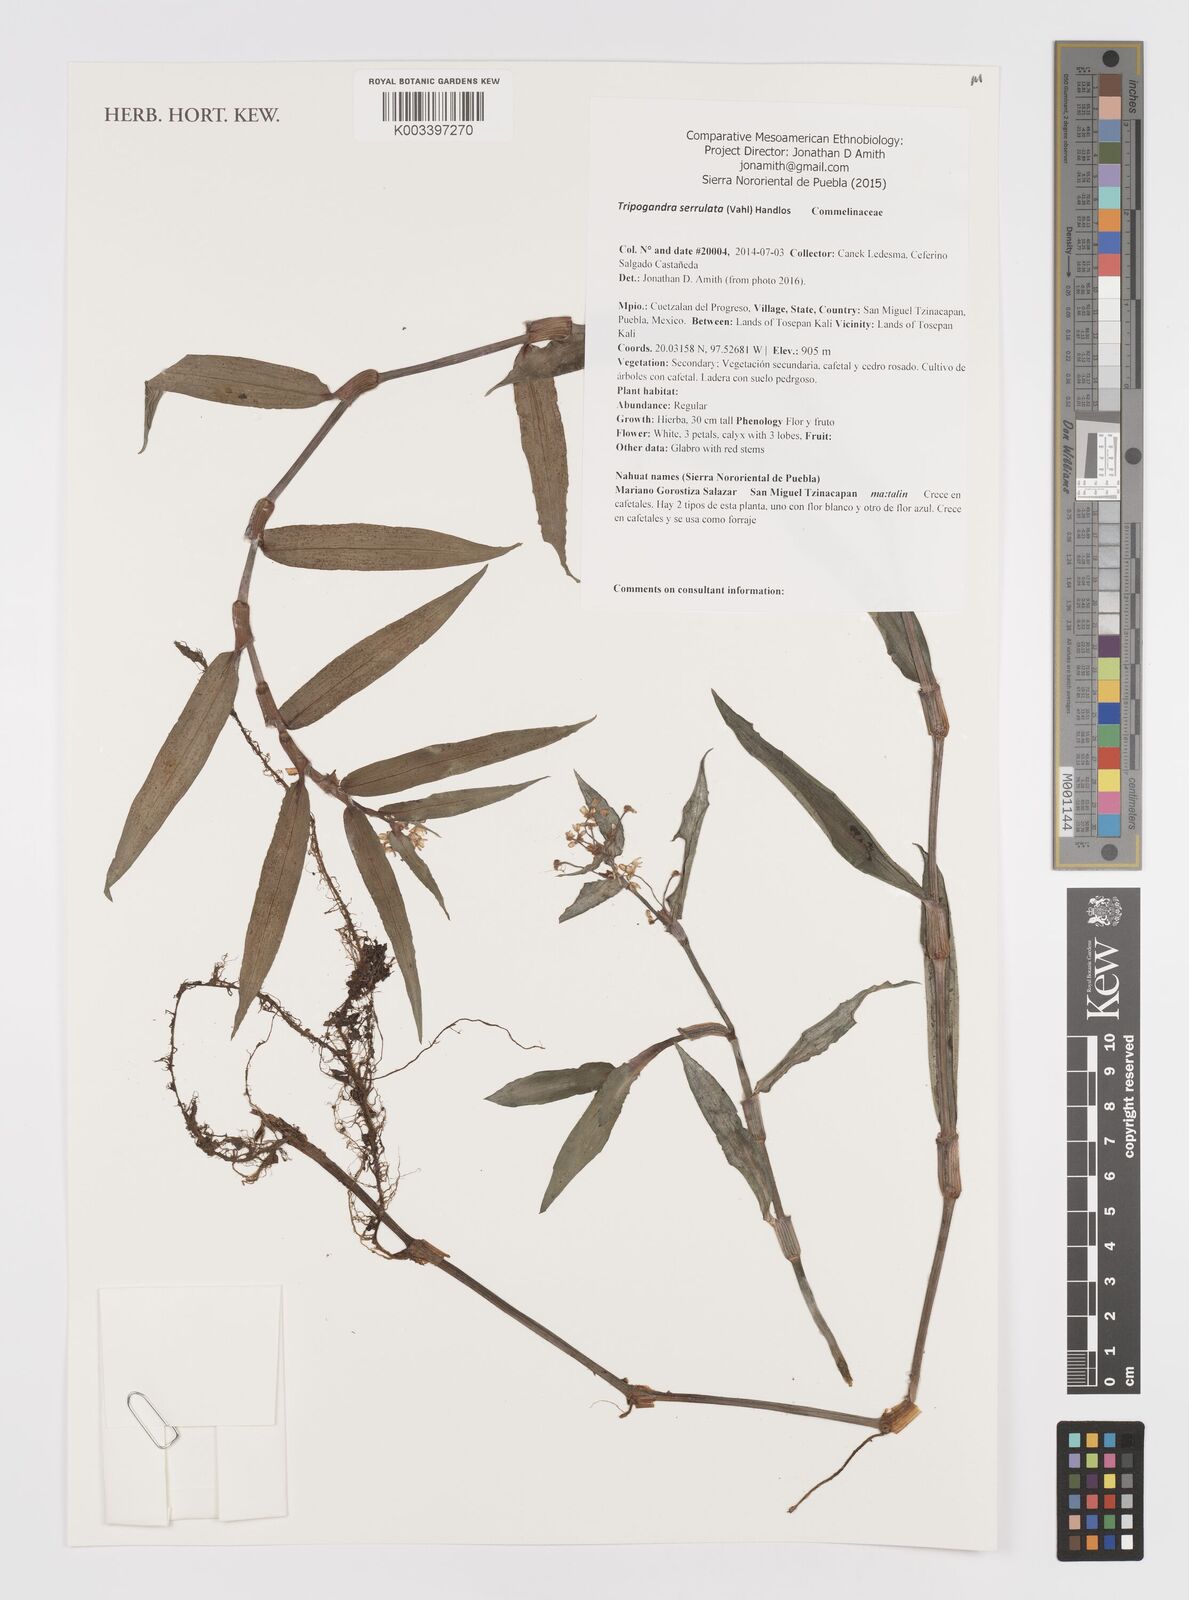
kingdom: Plantae
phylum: Tracheophyta
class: Liliopsida
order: Commelinales
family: Commelinaceae
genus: Callisia
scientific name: Callisia serrulata
